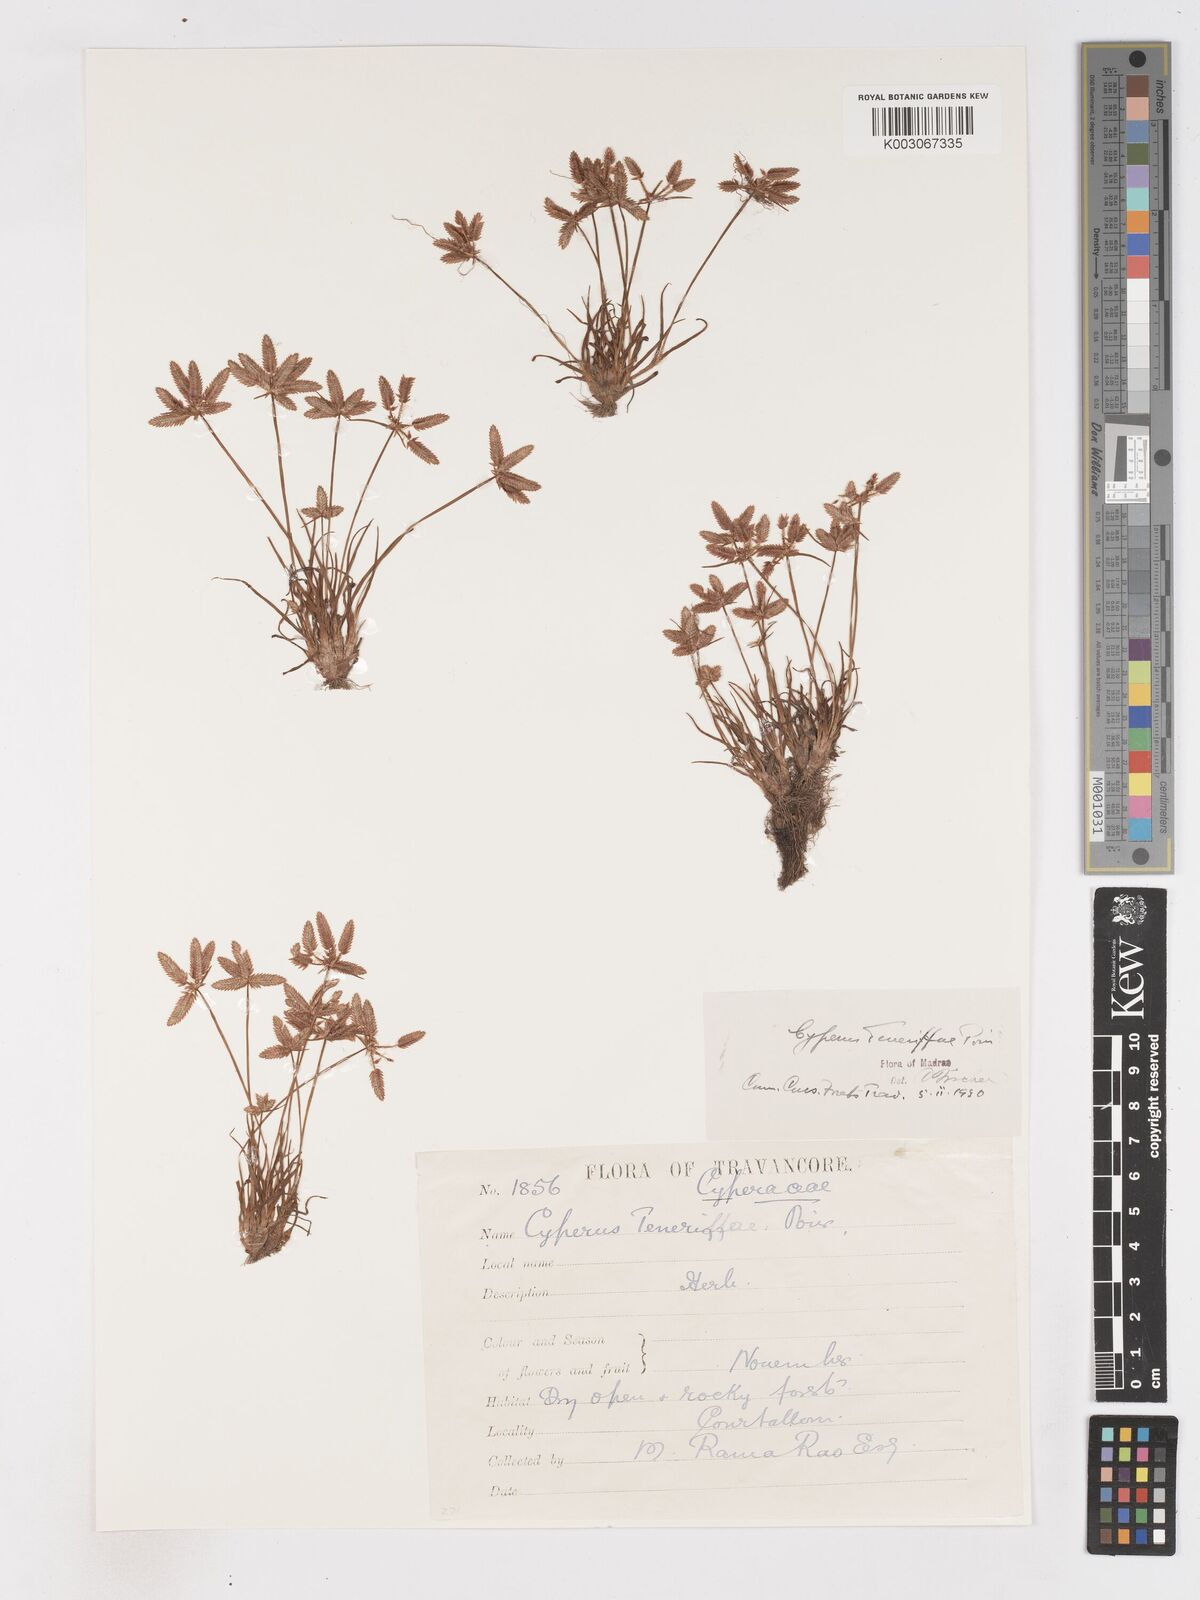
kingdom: Plantae
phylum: Tracheophyta
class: Liliopsida
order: Poales
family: Cyperaceae
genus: Cyperus
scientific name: Cyperus rubicundus
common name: Coco-grass
